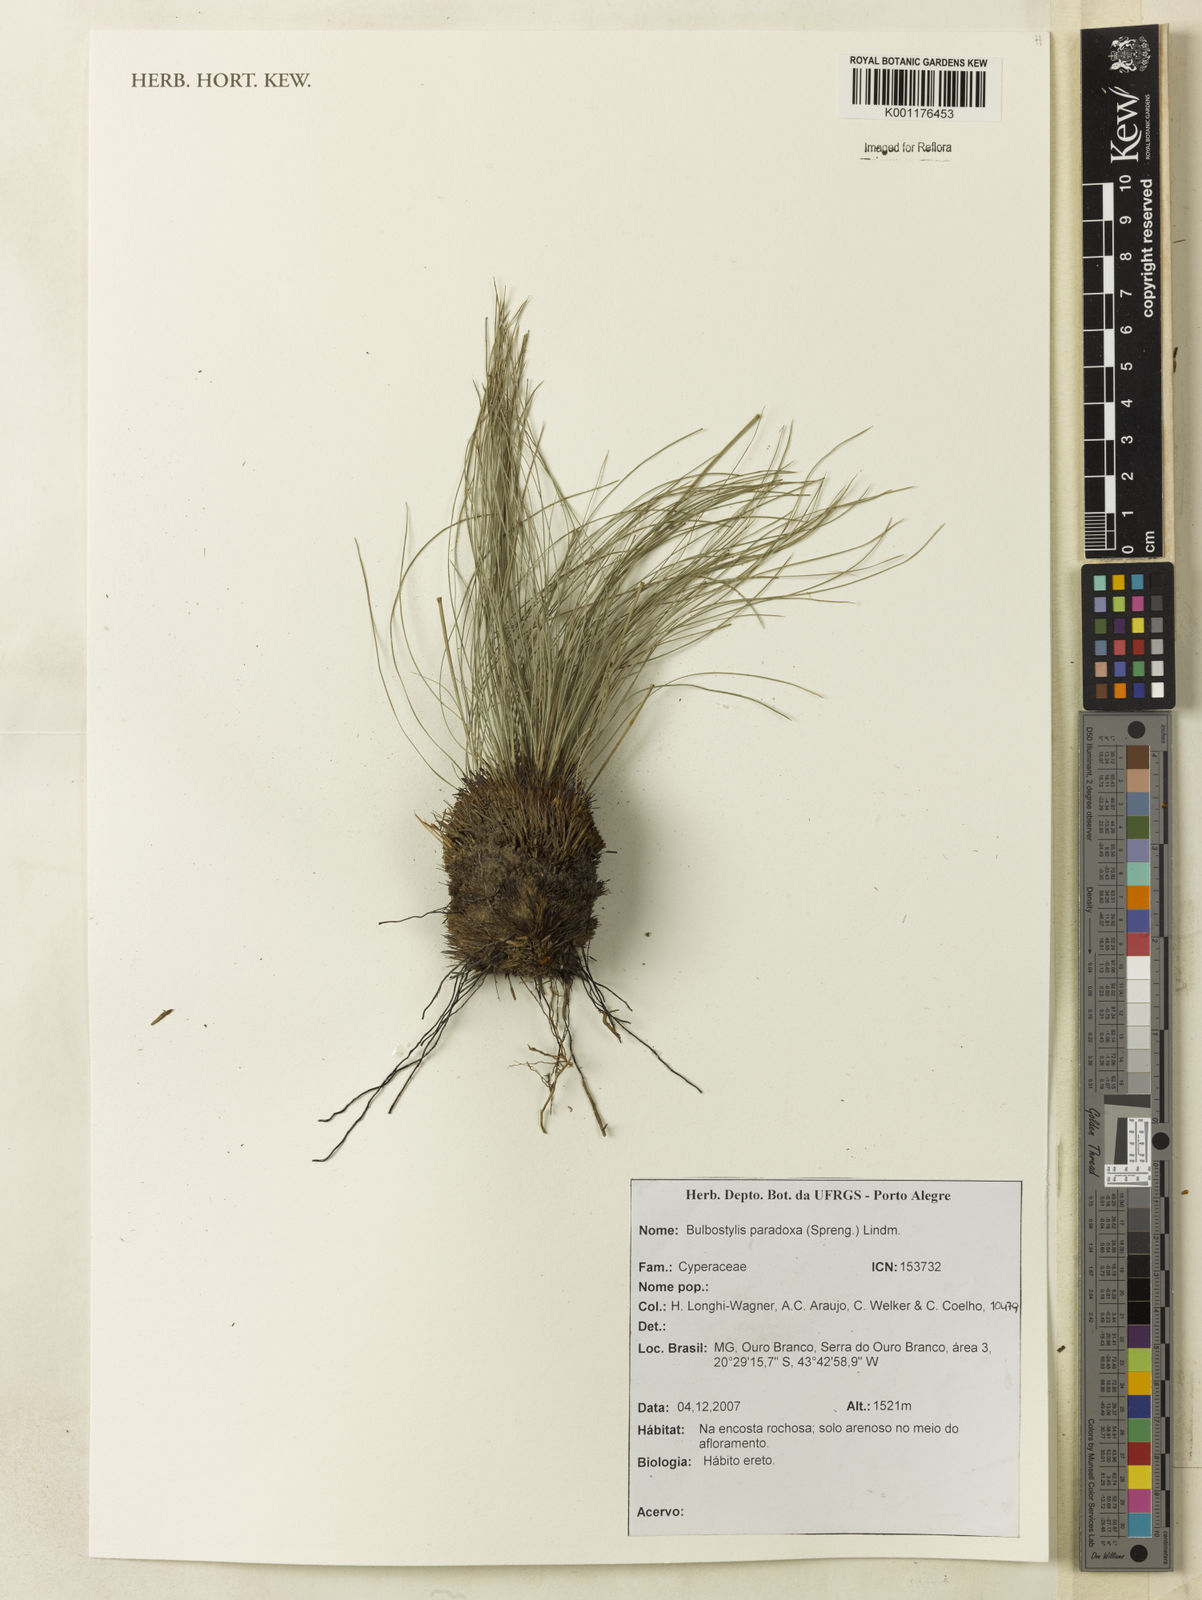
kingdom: Plantae
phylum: Tracheophyta
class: Liliopsida
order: Poales
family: Cyperaceae
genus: Bulbostylis
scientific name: Bulbostylis paradoxa
